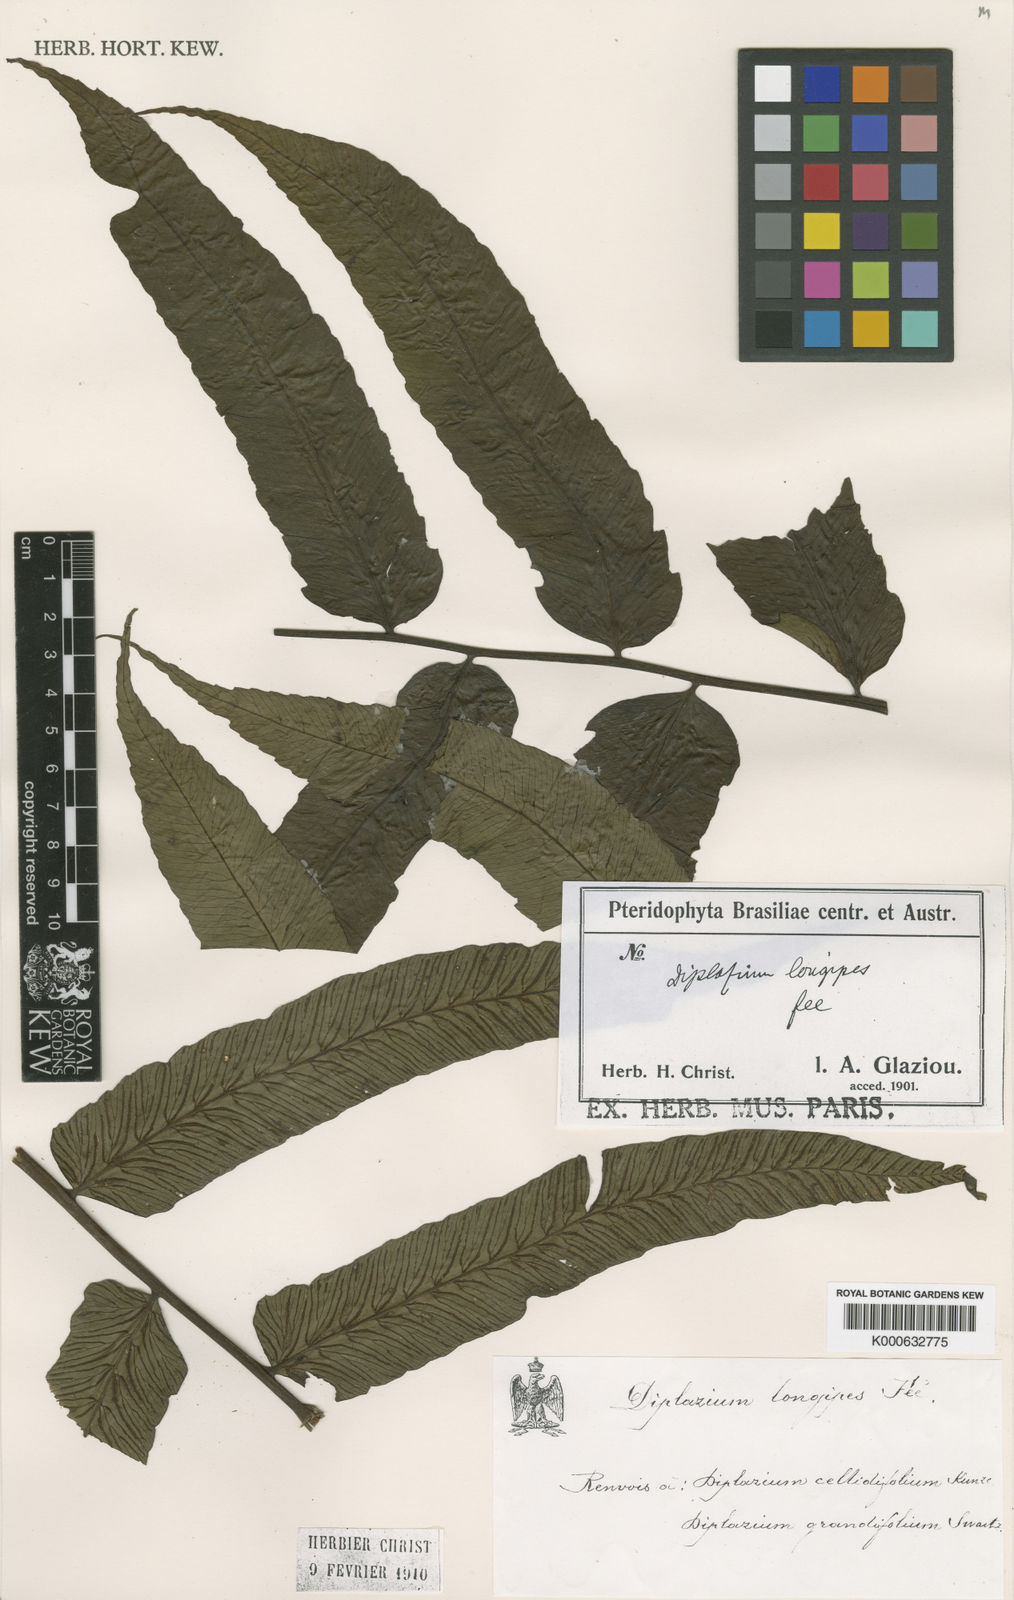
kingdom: Plantae
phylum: Tracheophyta
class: Polypodiopsida
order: Polypodiales
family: Athyriaceae
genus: Diplazium
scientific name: Diplazium celtidifolium
